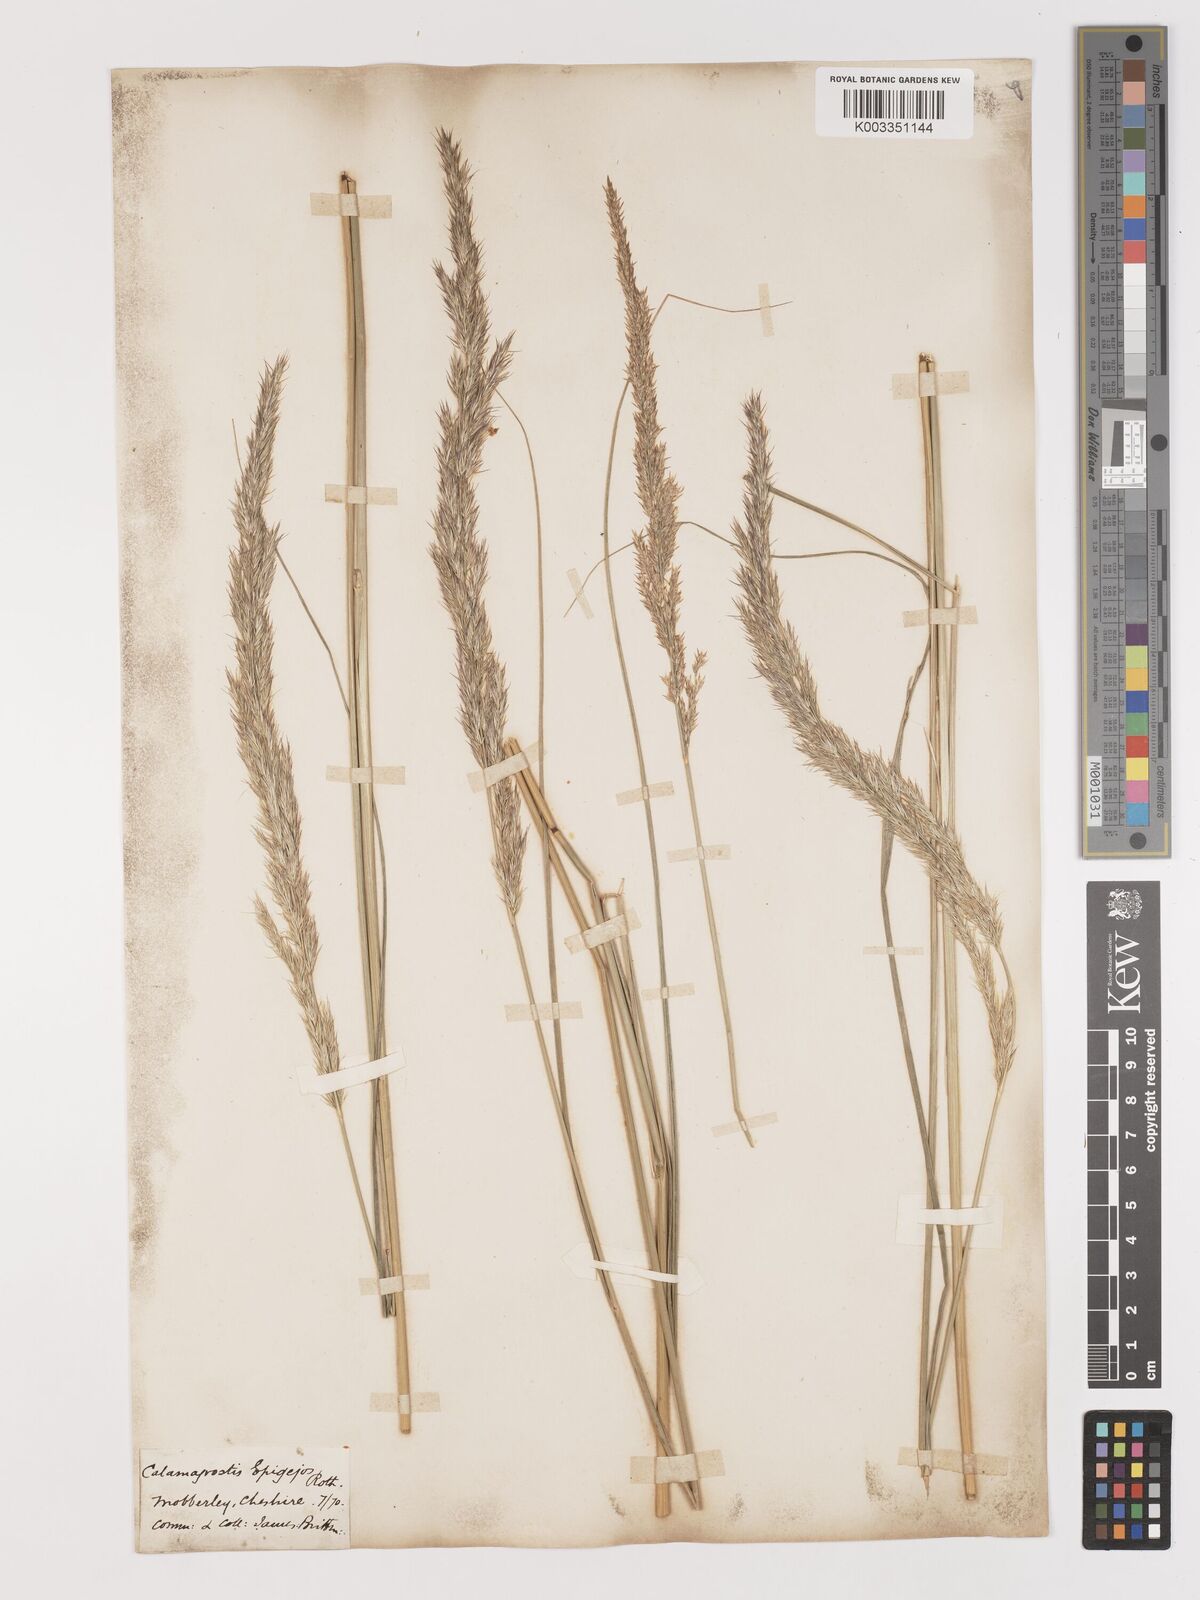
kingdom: Plantae
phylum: Tracheophyta
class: Liliopsida
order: Poales
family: Poaceae
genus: Calamagrostis
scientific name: Calamagrostis
